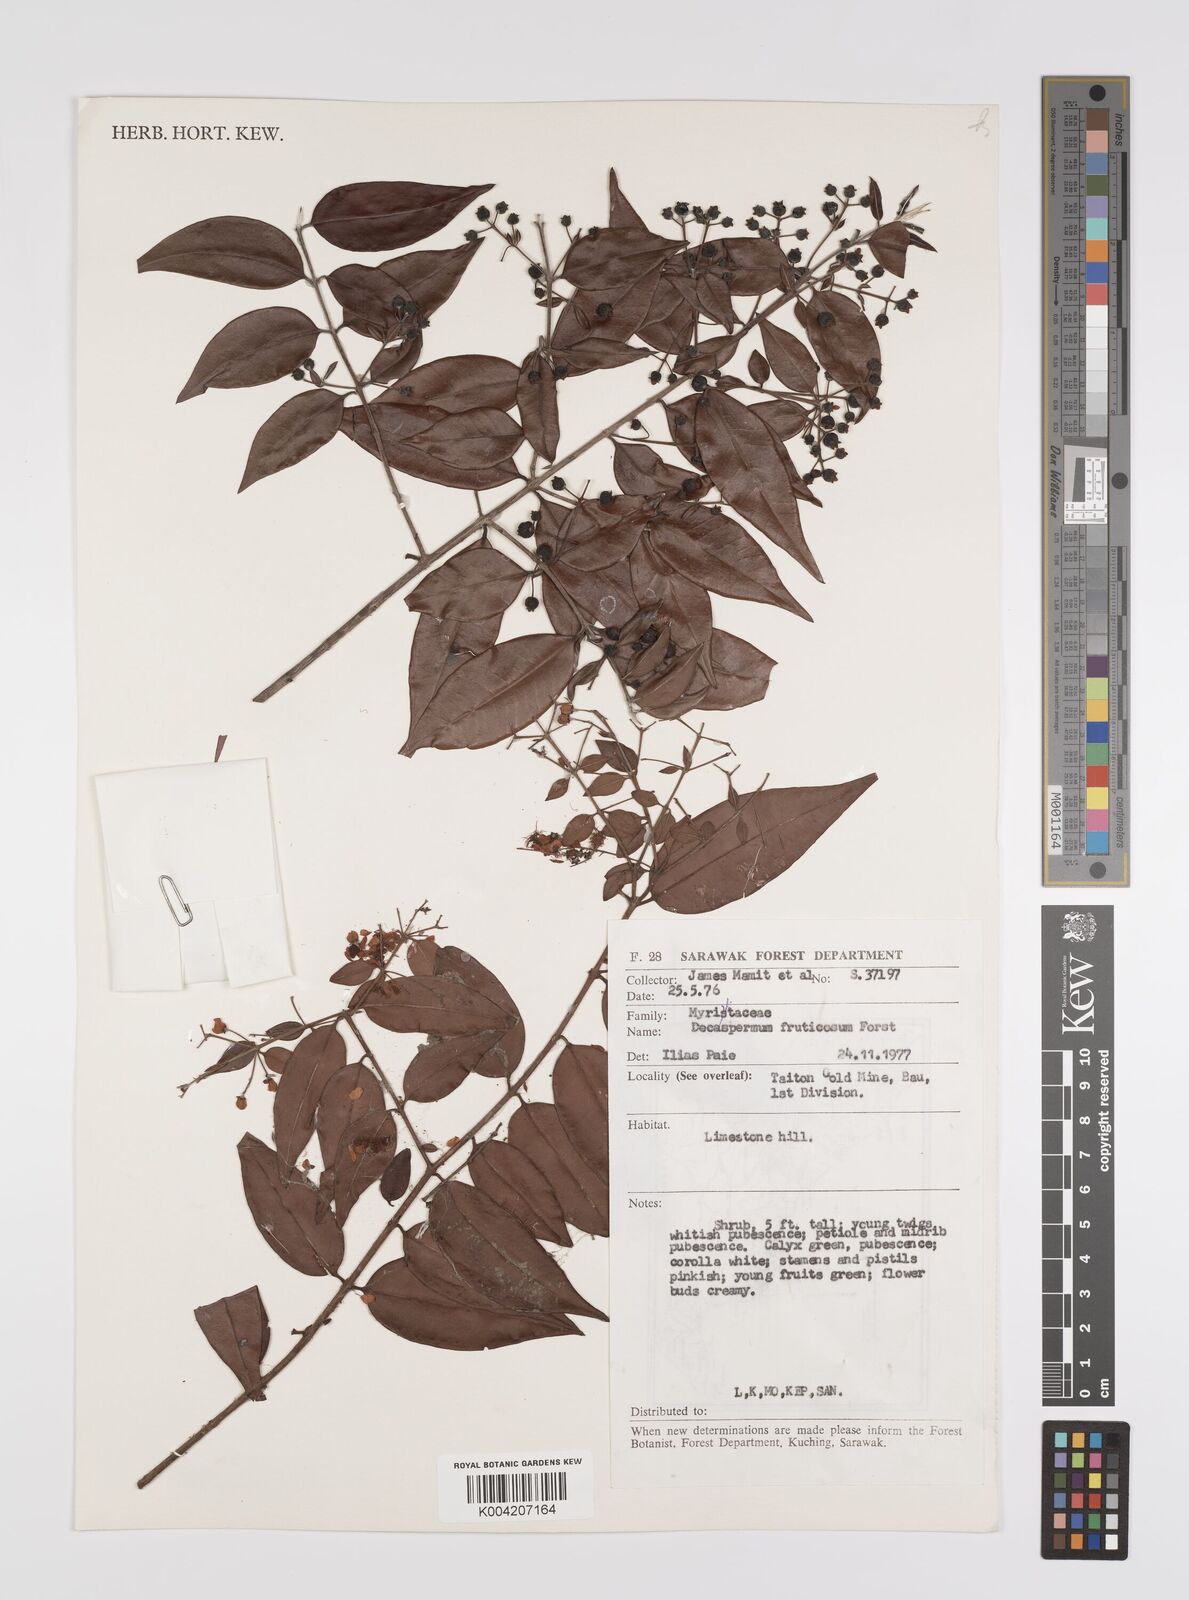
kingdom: Plantae
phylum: Tracheophyta
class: Magnoliopsida
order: Myrtales
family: Myrtaceae
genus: Decaspermum
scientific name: Decaspermum fruticosum
